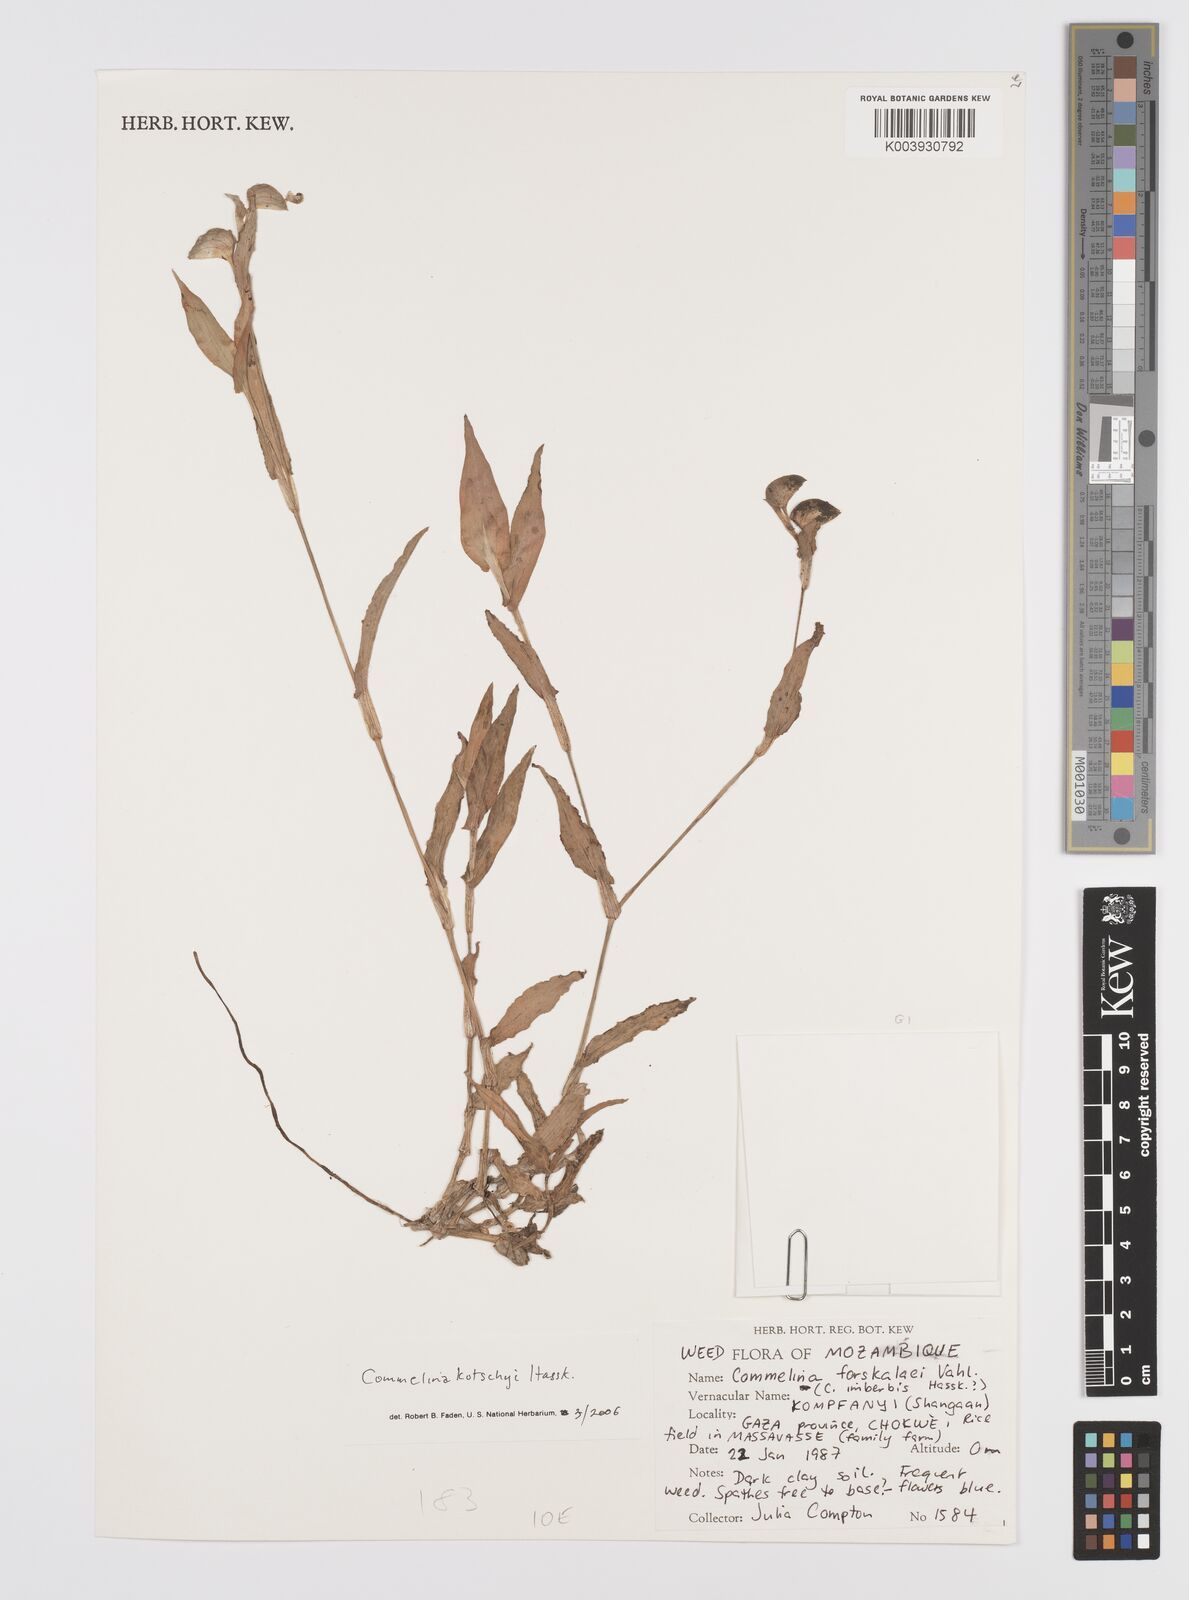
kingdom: Plantae
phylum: Tracheophyta
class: Liliopsida
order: Commelinales
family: Commelinaceae
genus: Commelina
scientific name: Commelina kotschyi
